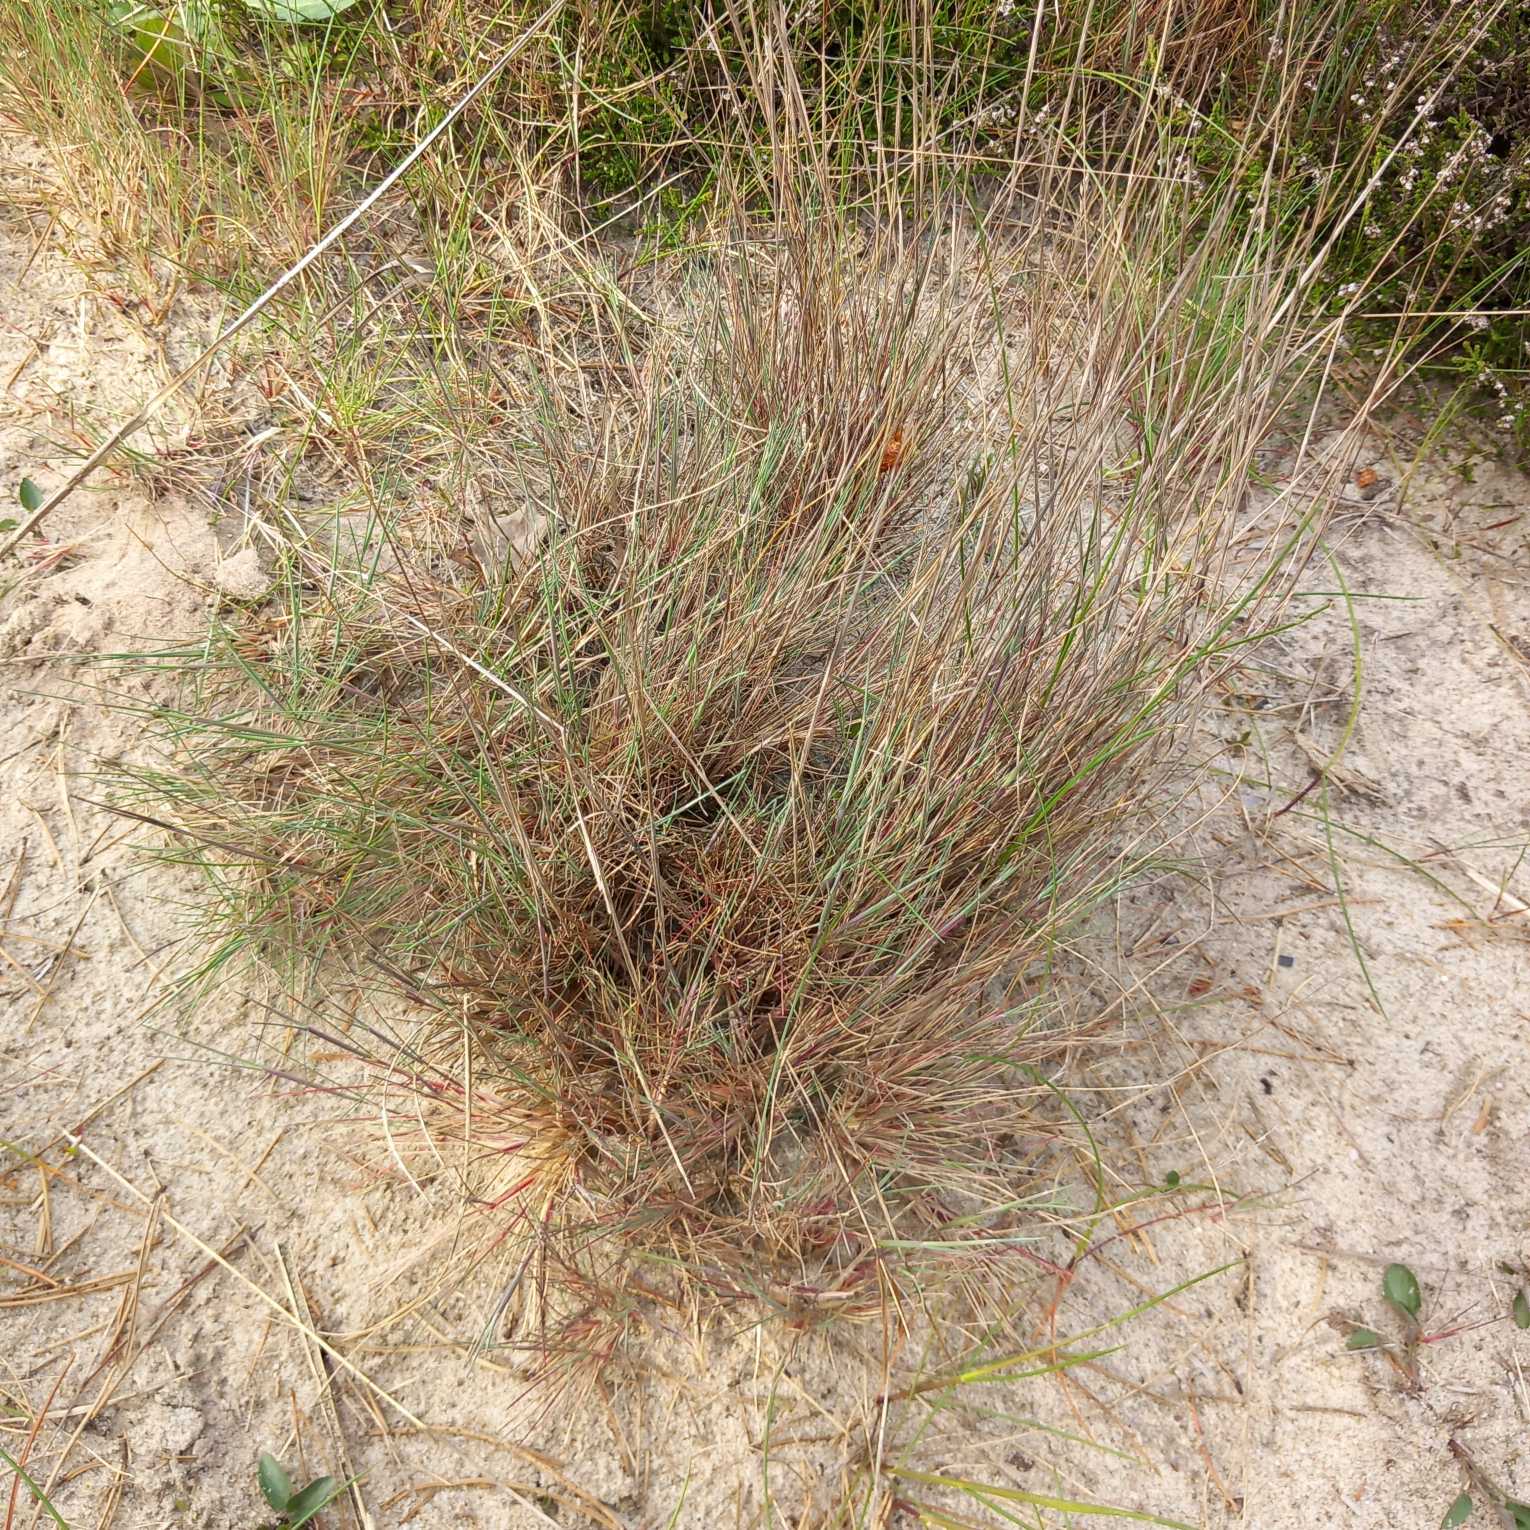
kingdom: Plantae
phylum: Tracheophyta
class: Liliopsida
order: Poales
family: Poaceae
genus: Corynephorus
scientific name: Corynephorus canescens
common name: Sandskæg
